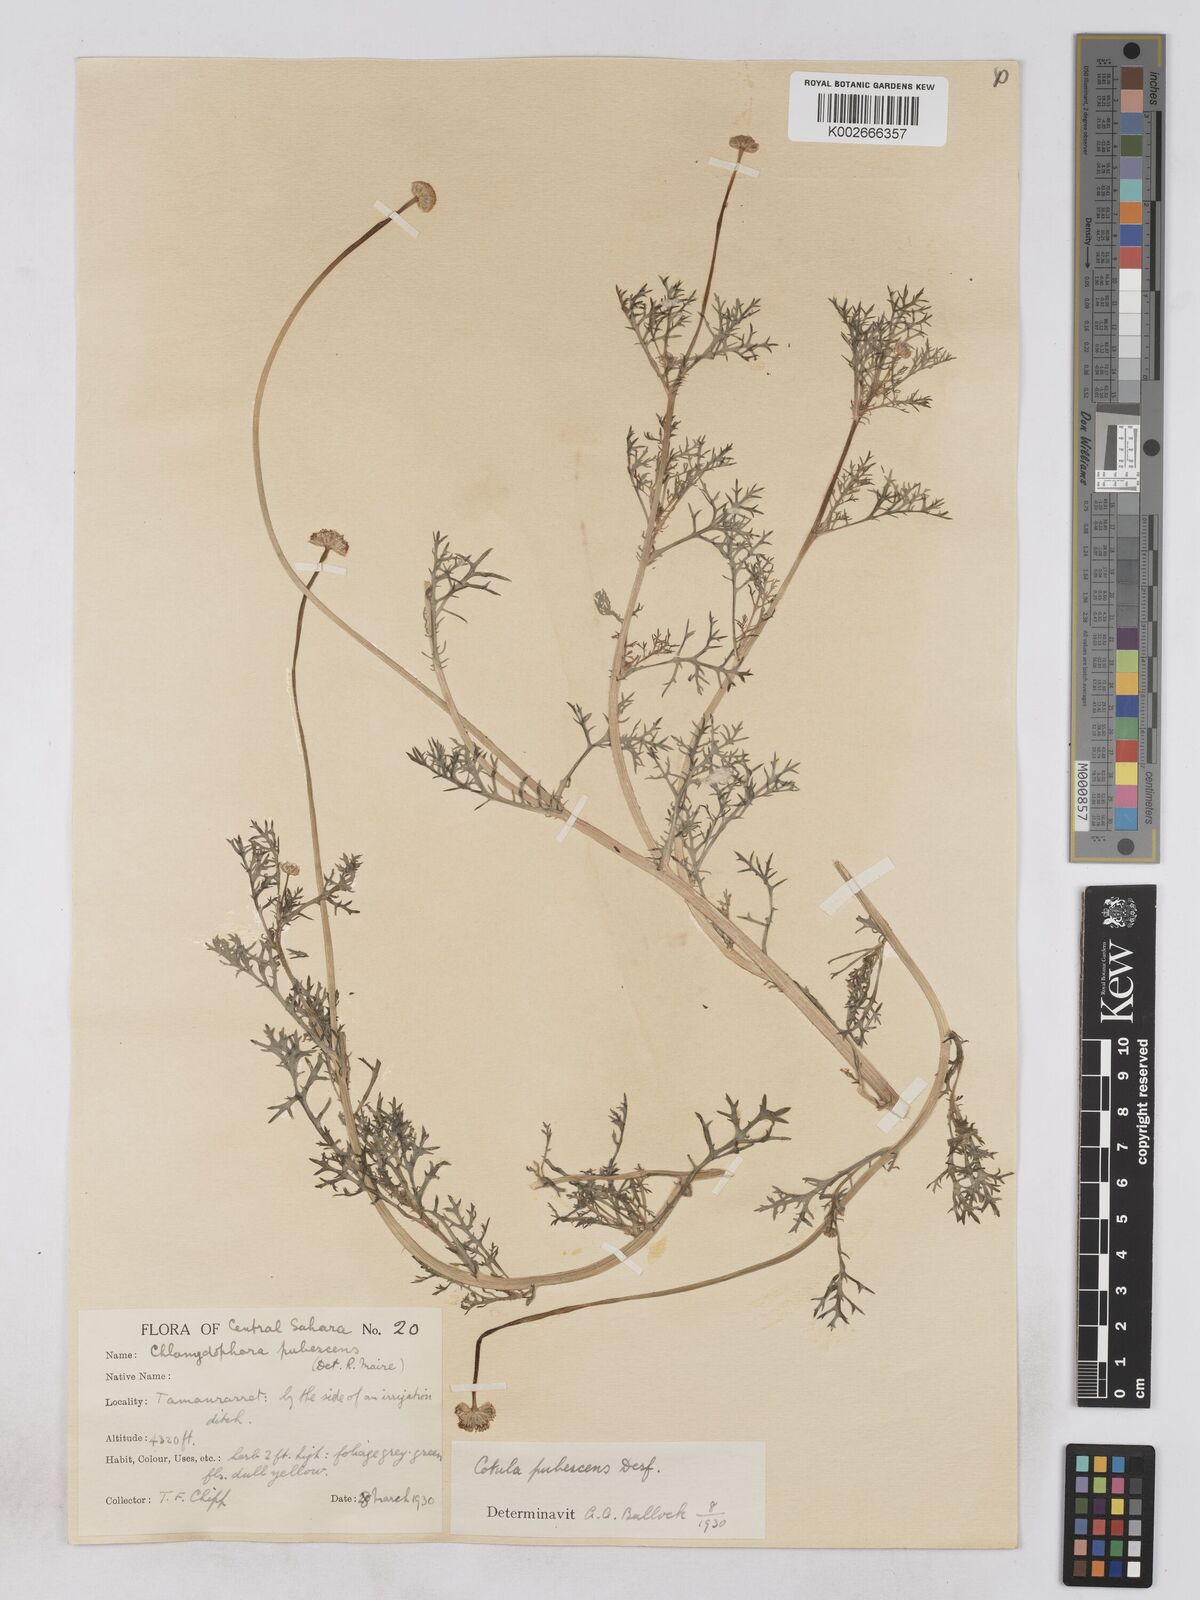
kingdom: Plantae
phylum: Tracheophyta
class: Magnoliopsida
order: Asterales
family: Asteraceae
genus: Otoglyphis
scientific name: Otoglyphis pubescens
